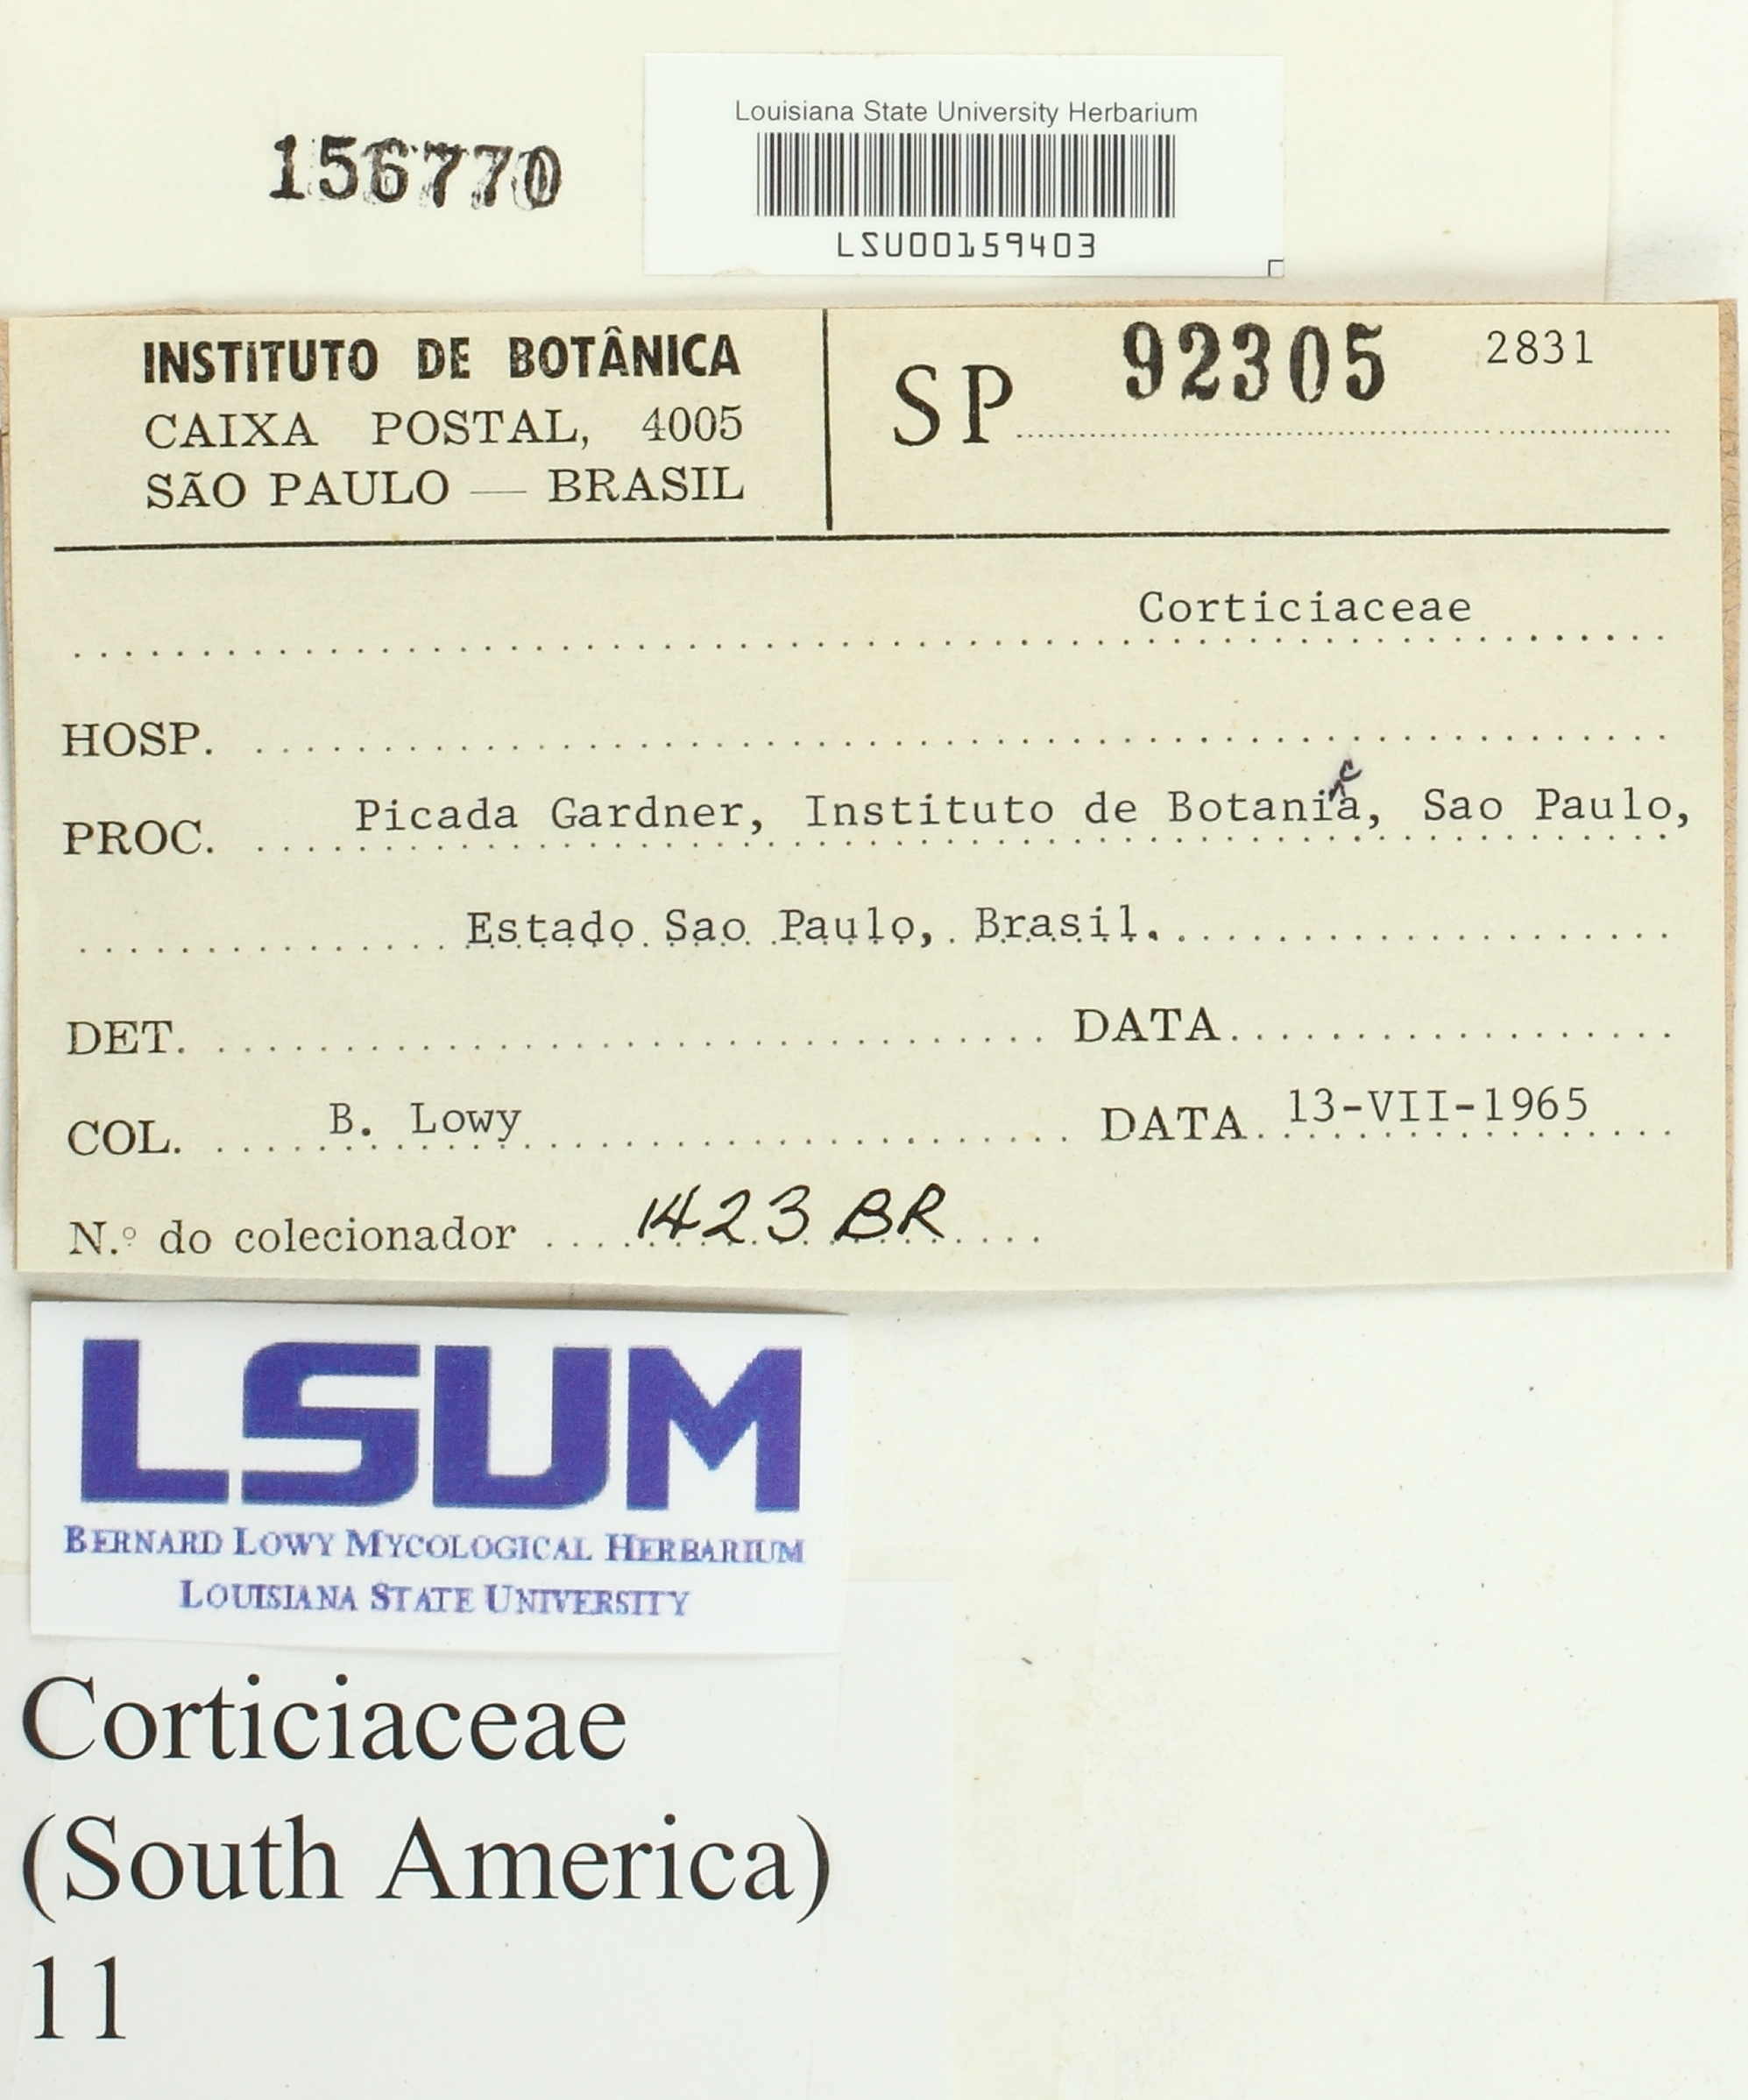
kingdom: Fungi
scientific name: Fungi
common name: Fungi
